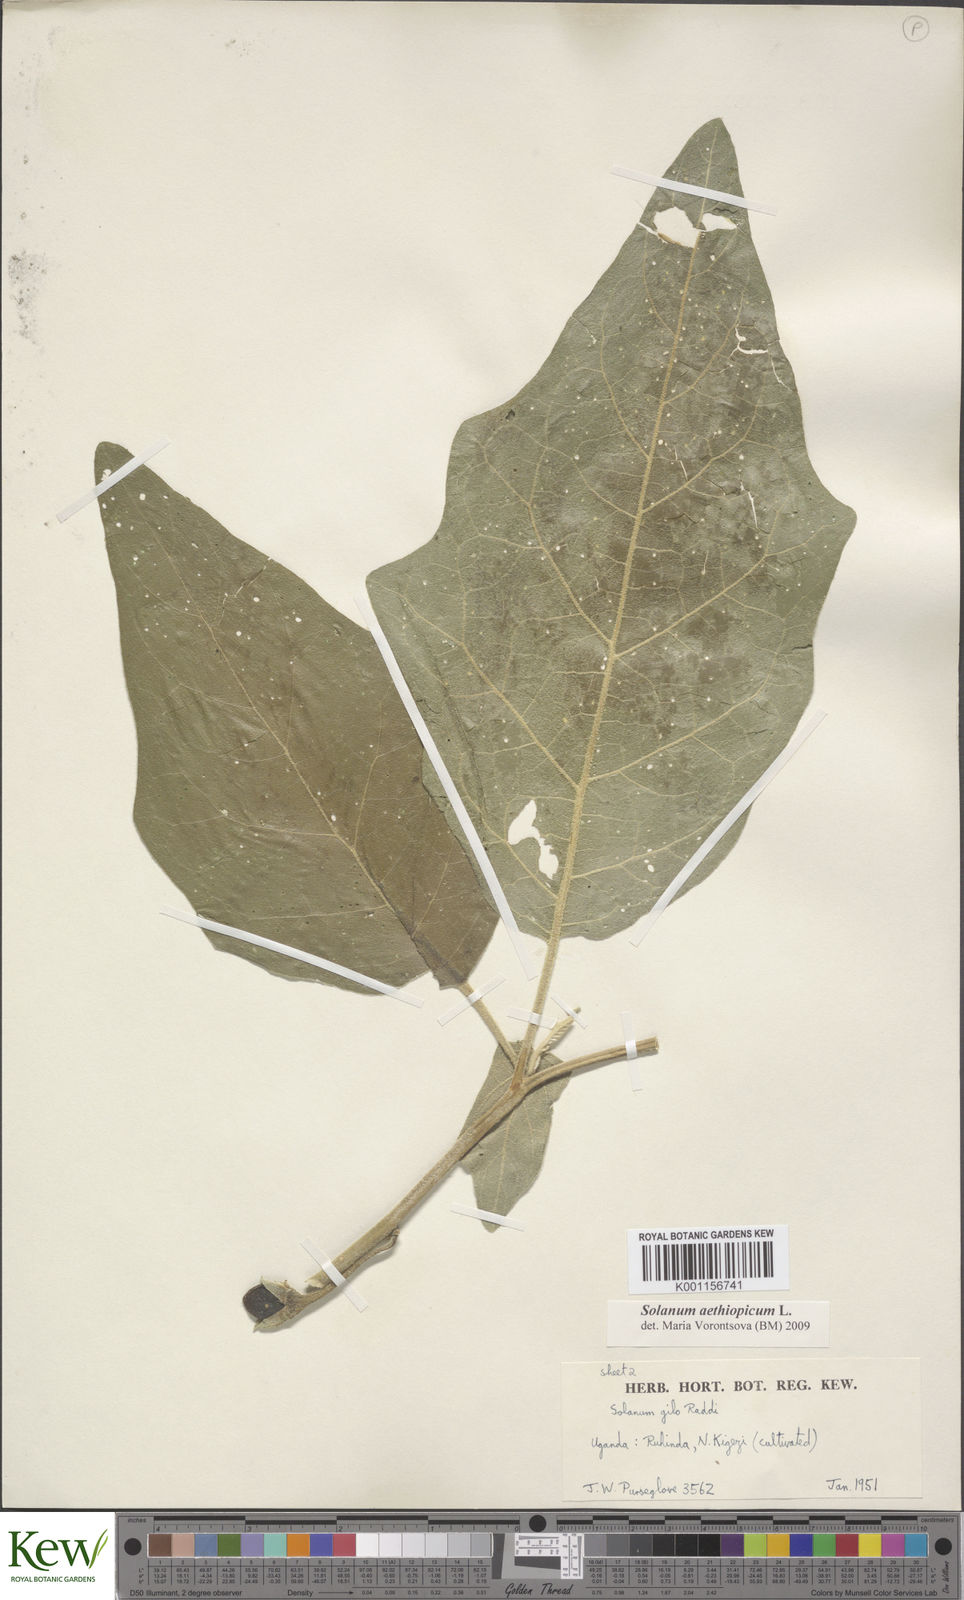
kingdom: Plantae
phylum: Tracheophyta
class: Magnoliopsida
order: Solanales
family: Solanaceae
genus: Solanum
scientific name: Solanum aethiopicum
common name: Gilo
